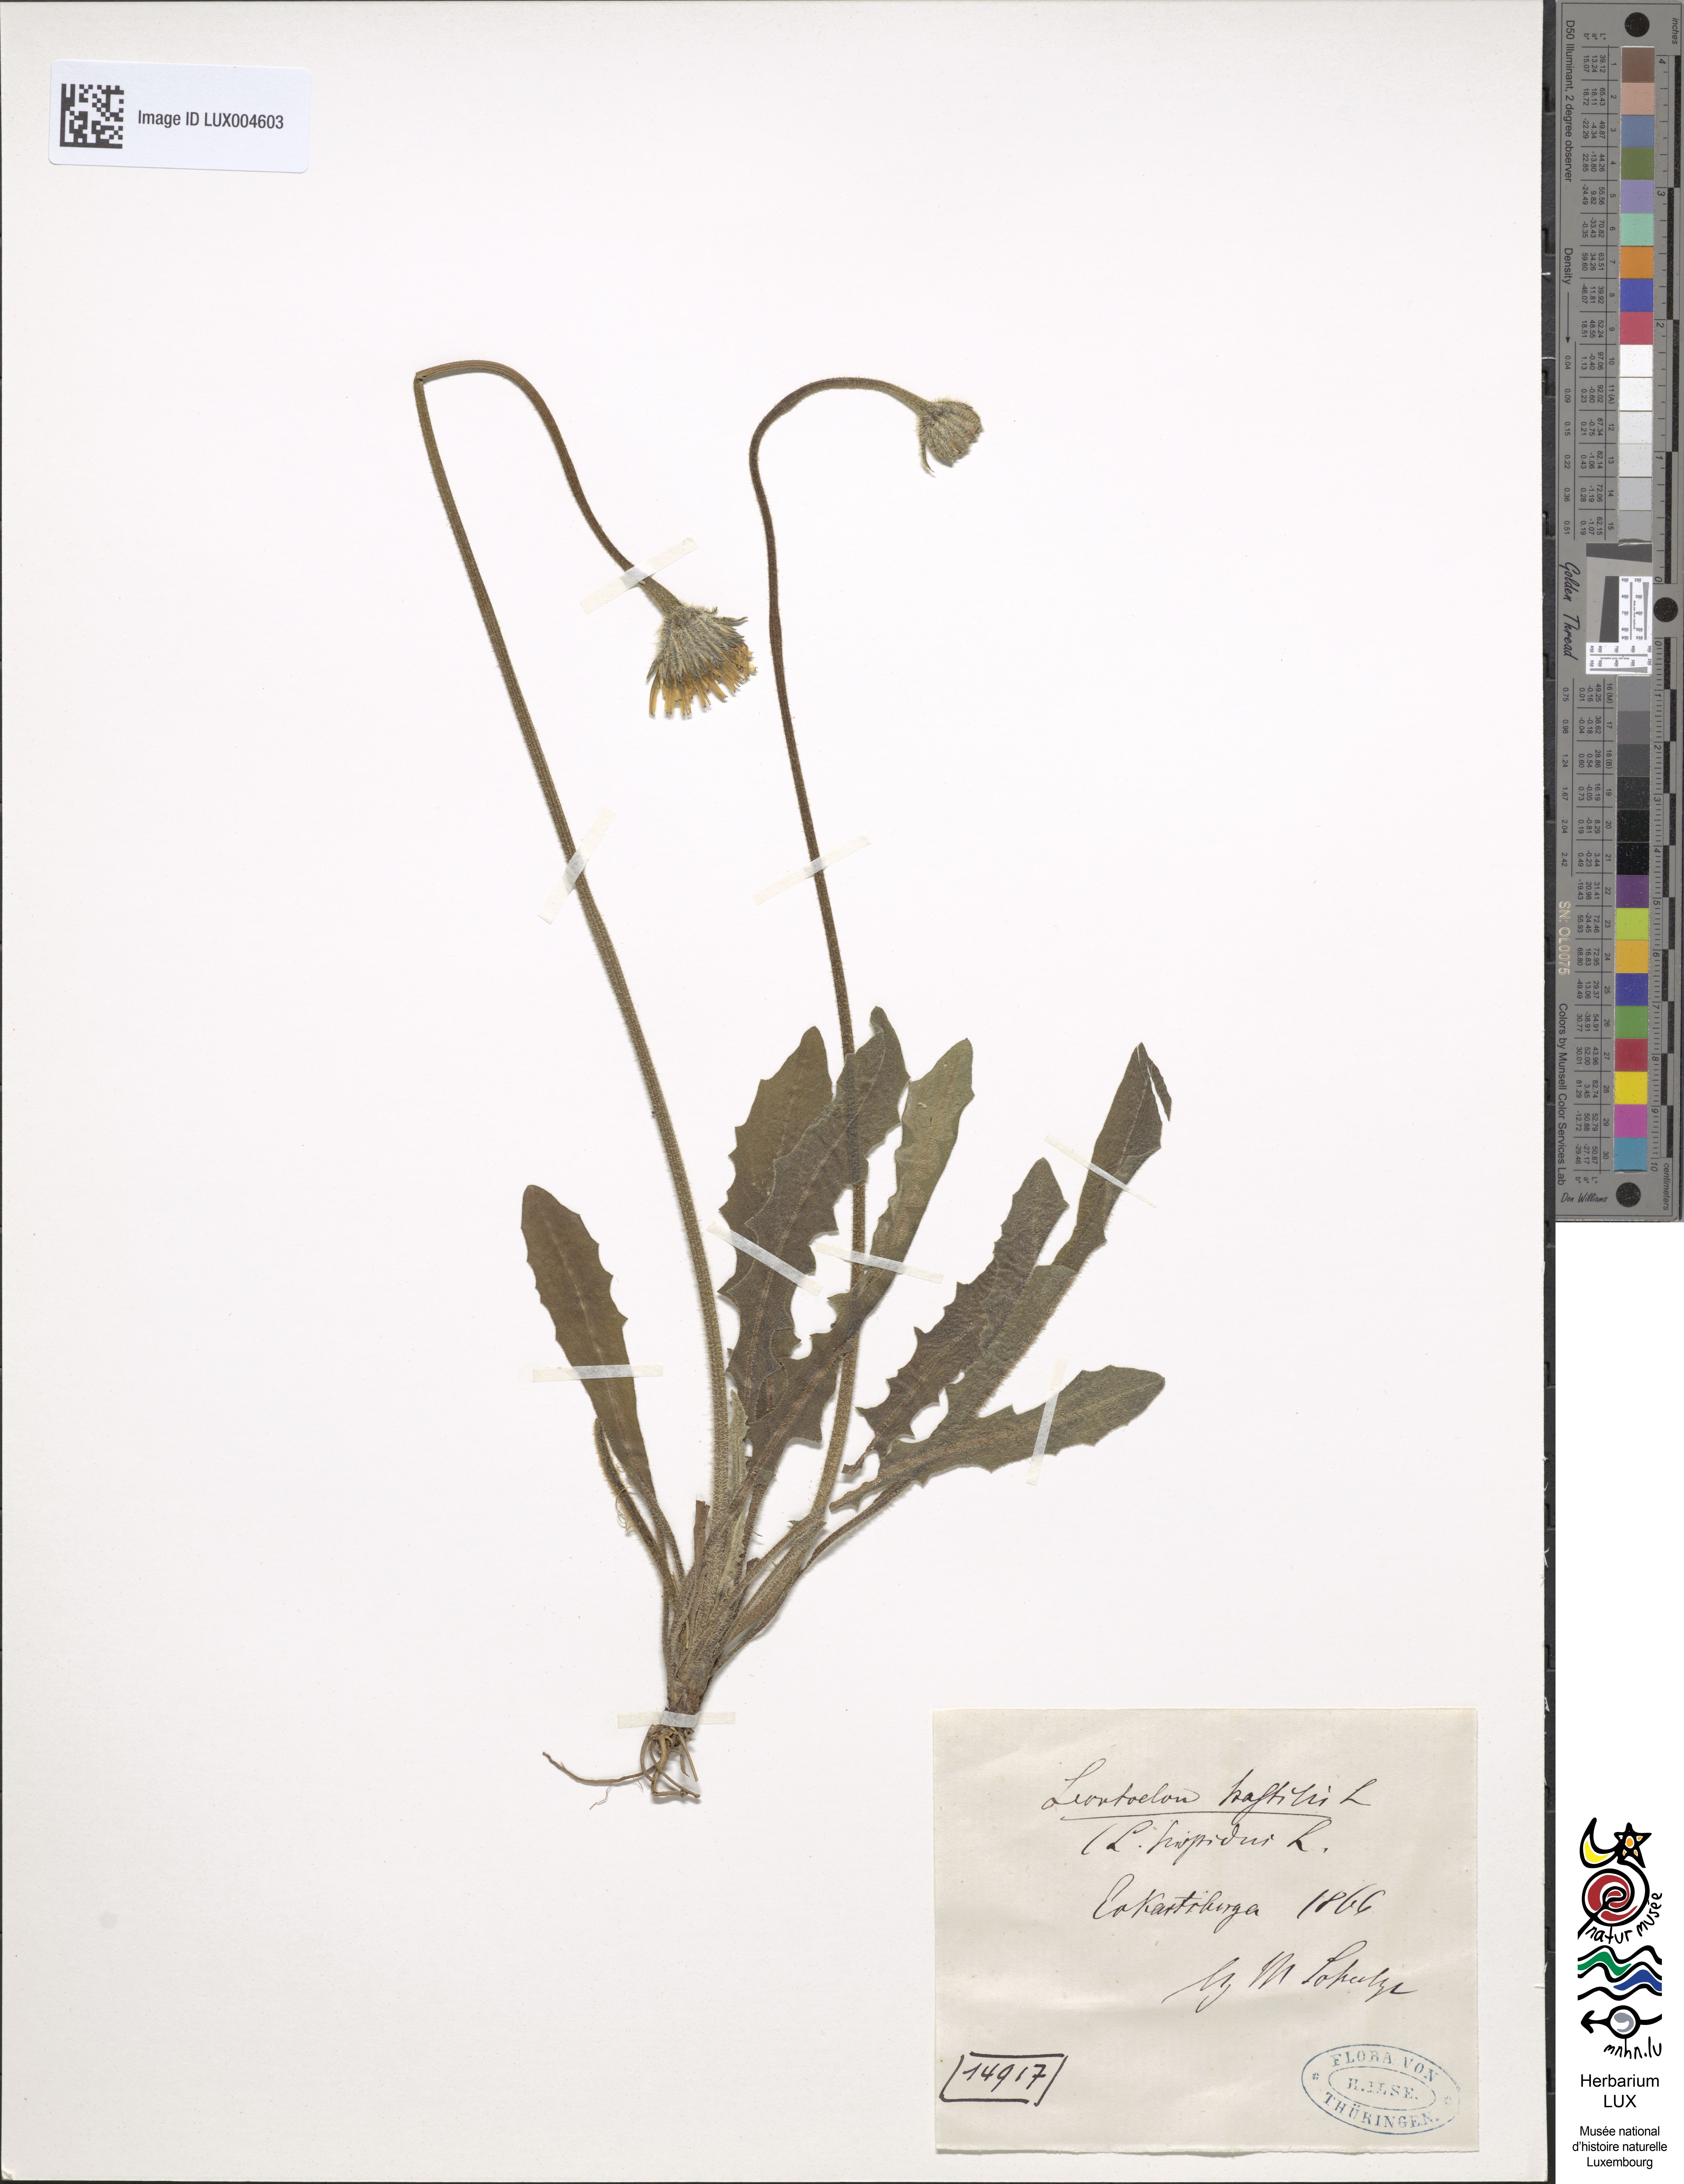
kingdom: Plantae
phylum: Tracheophyta
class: Magnoliopsida
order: Asterales
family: Asteraceae
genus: Leontodon
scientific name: Leontodon hispidus
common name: Rough hawkbit
